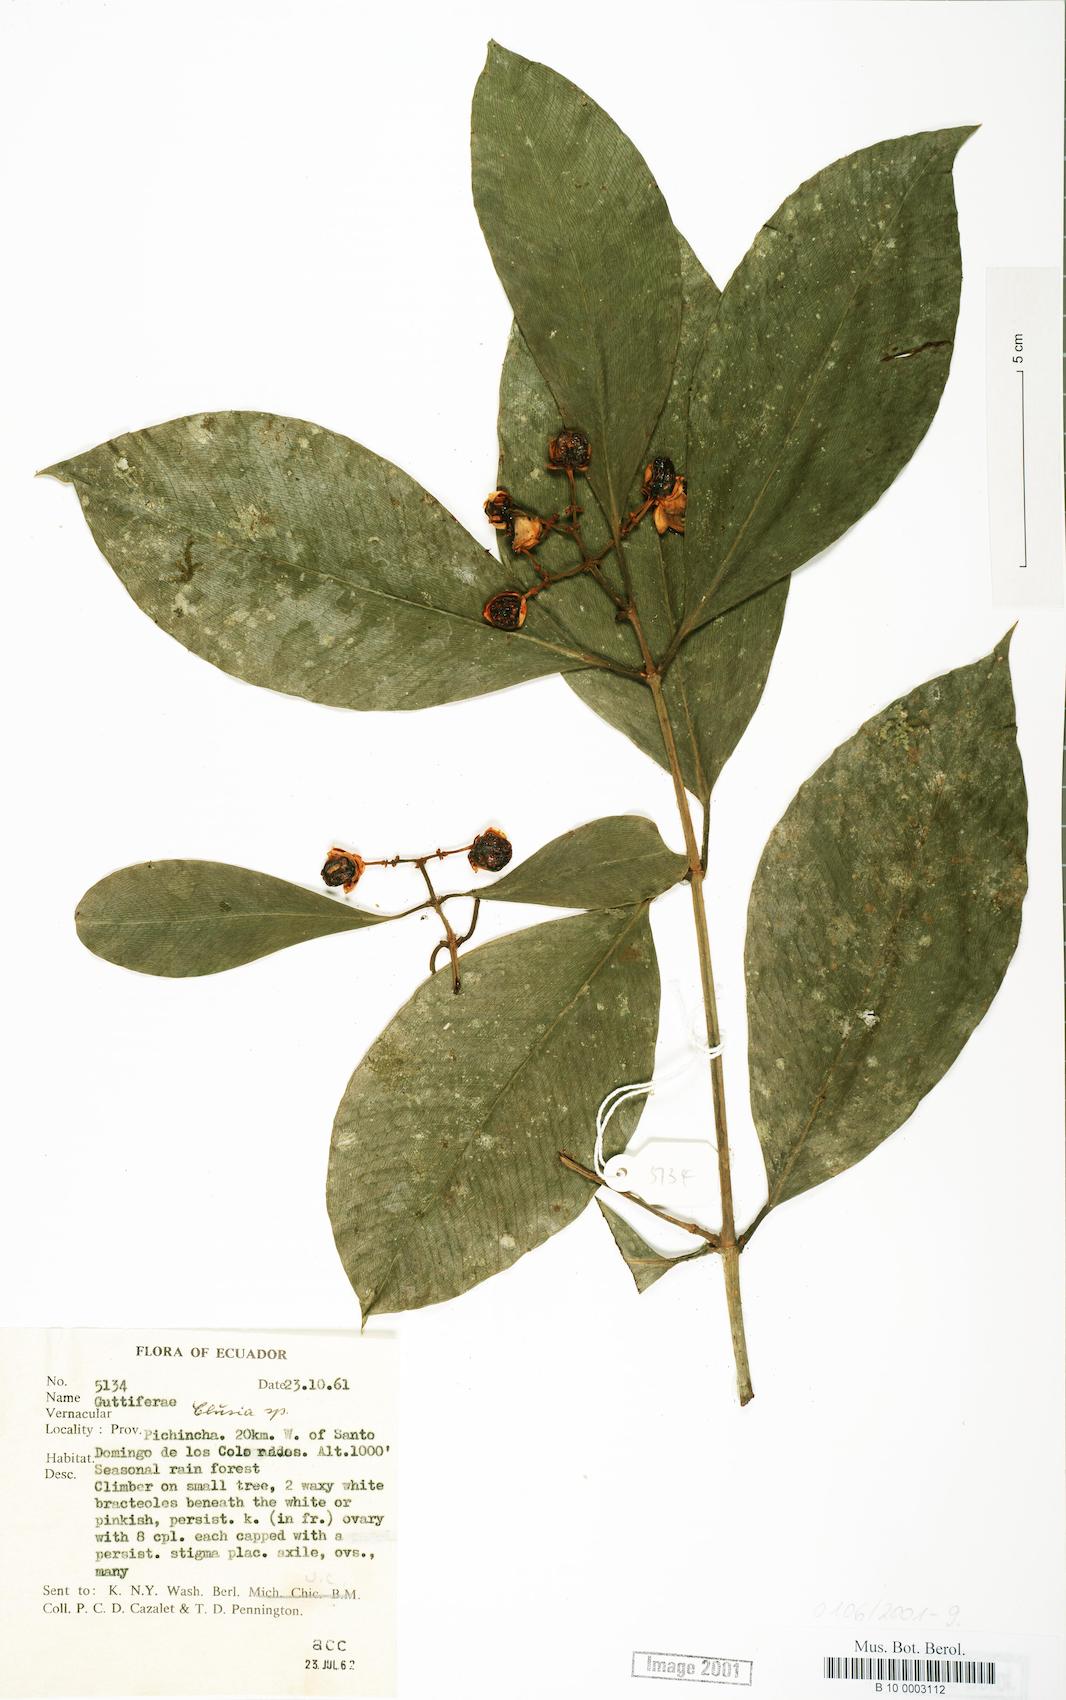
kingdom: Plantae
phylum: Tracheophyta
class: Magnoliopsida
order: Malpighiales
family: Clusiaceae
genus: Clusia
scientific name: Clusia
